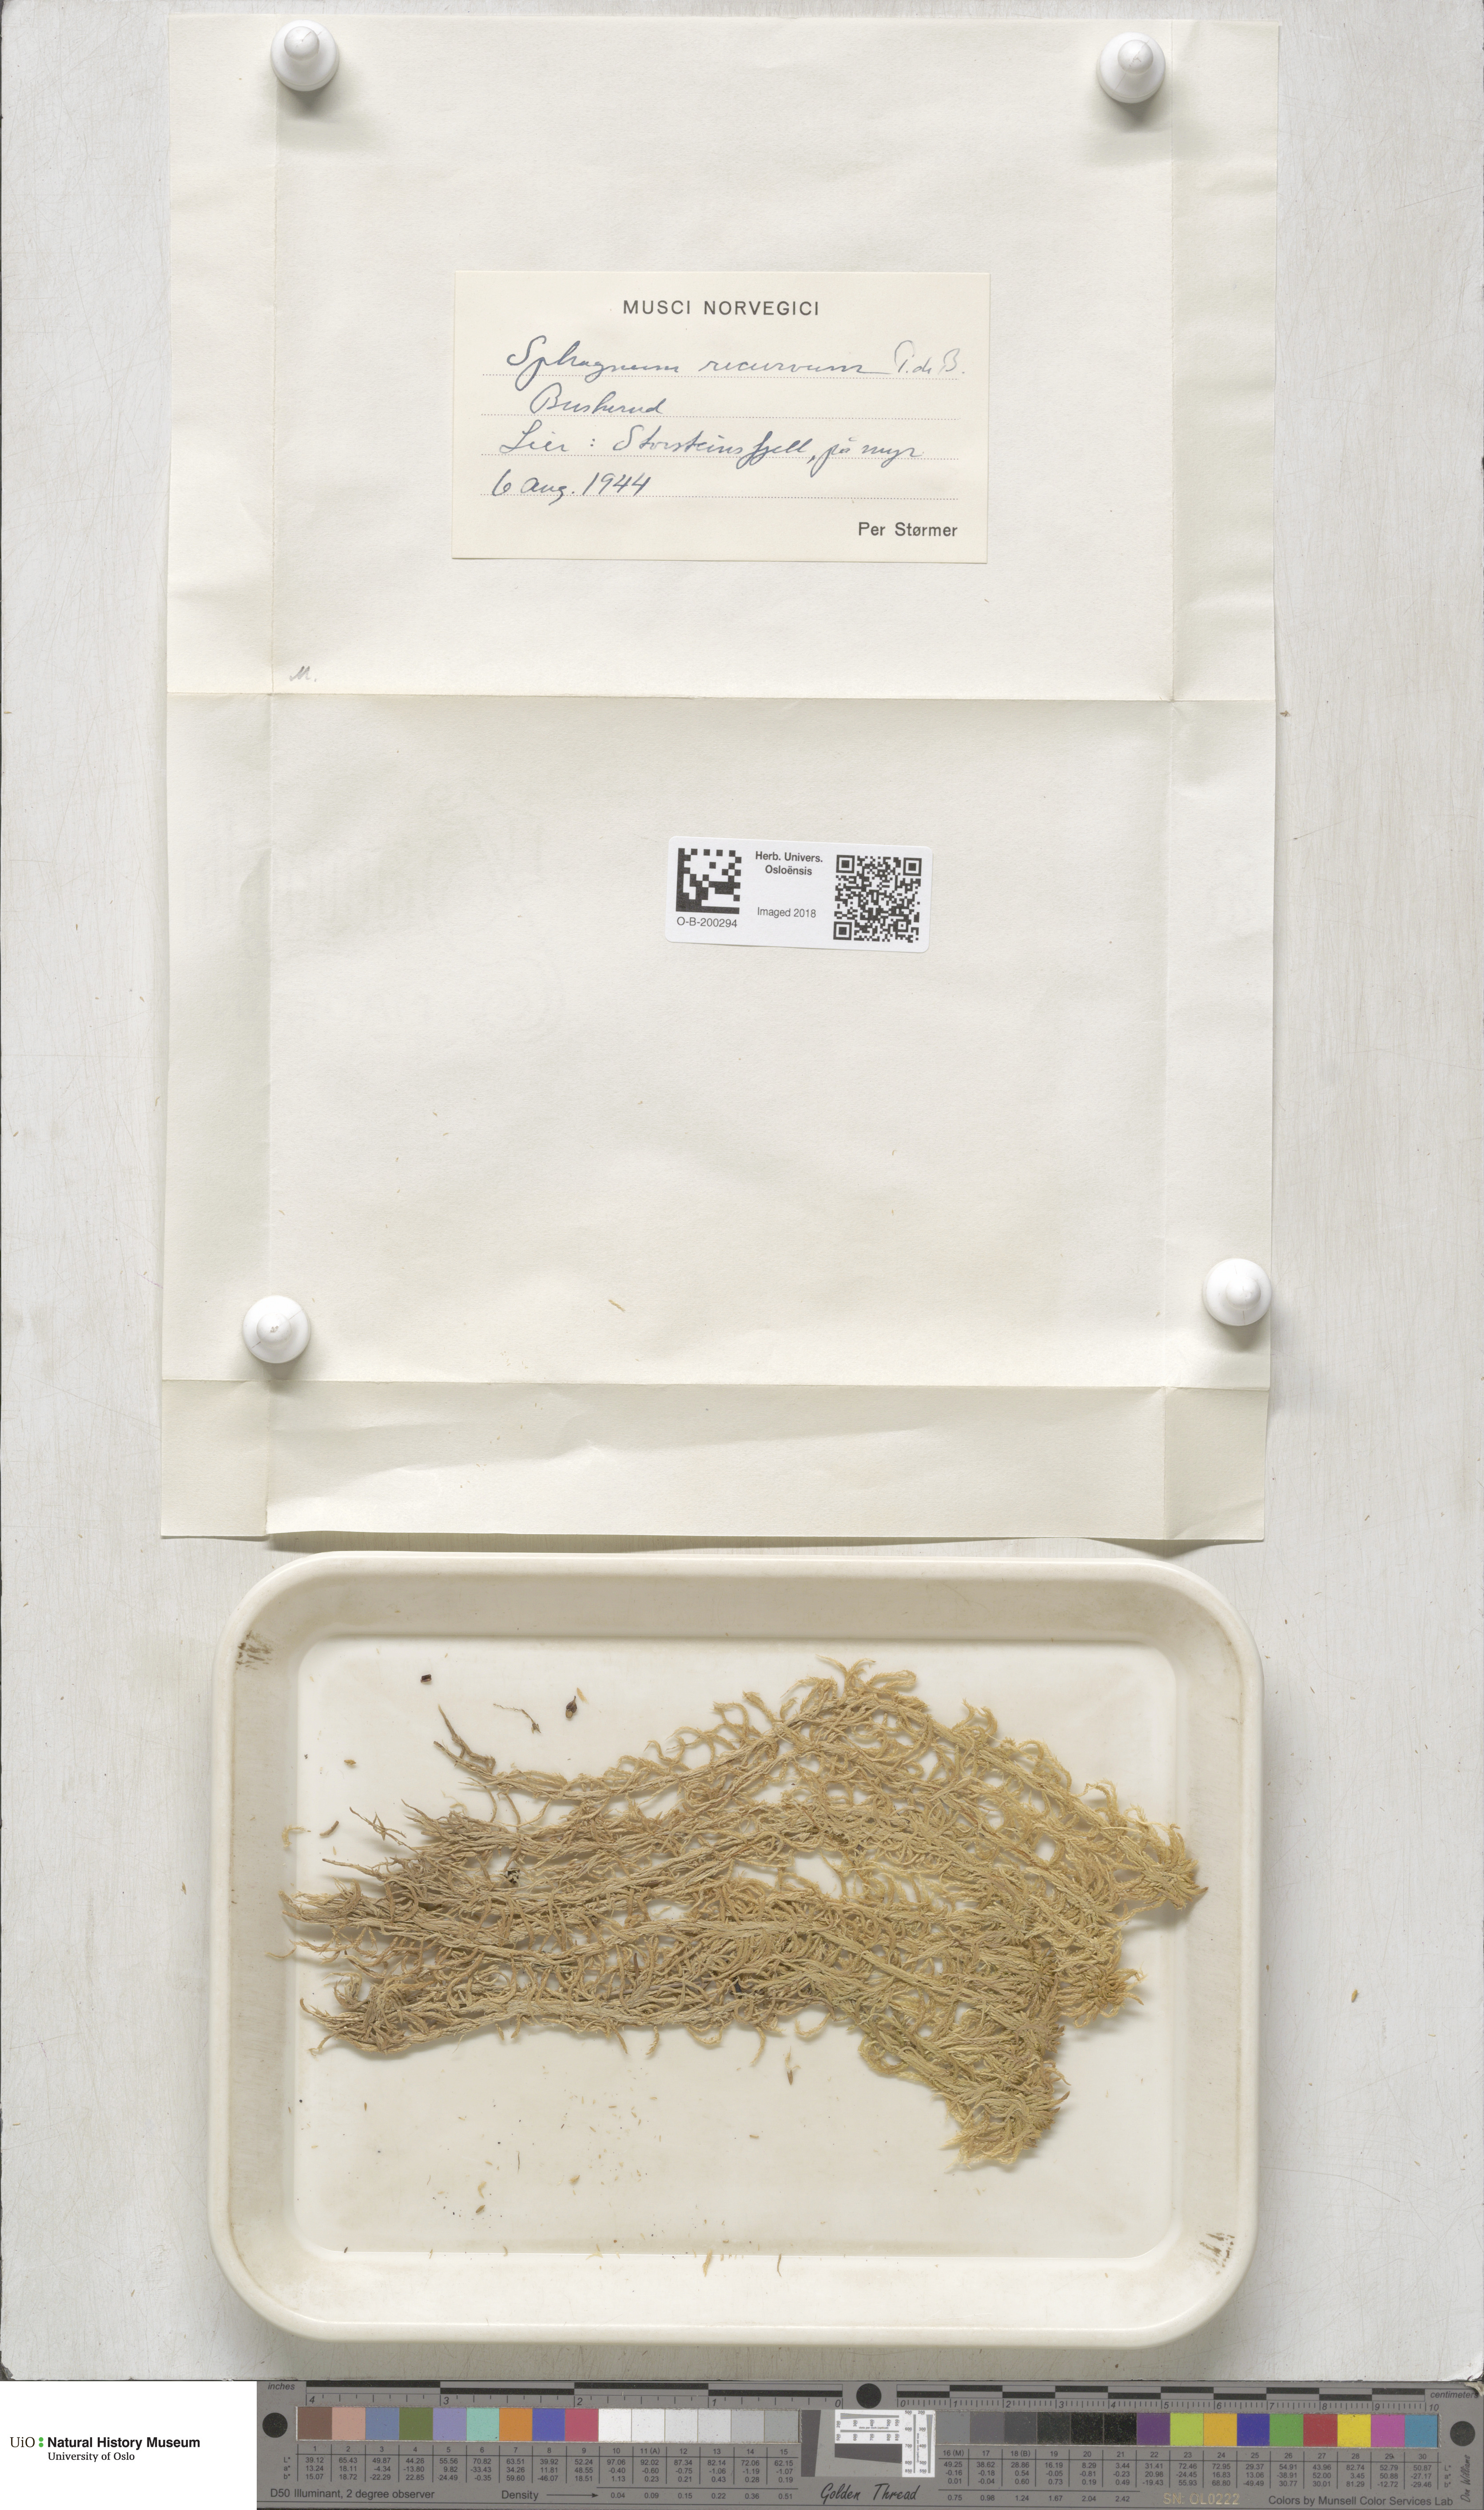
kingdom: Plantae
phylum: Bryophyta
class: Sphagnopsida
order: Sphagnales
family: Sphagnaceae
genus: Sphagnum
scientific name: Sphagnum fallax
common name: Flat-top peat moss
